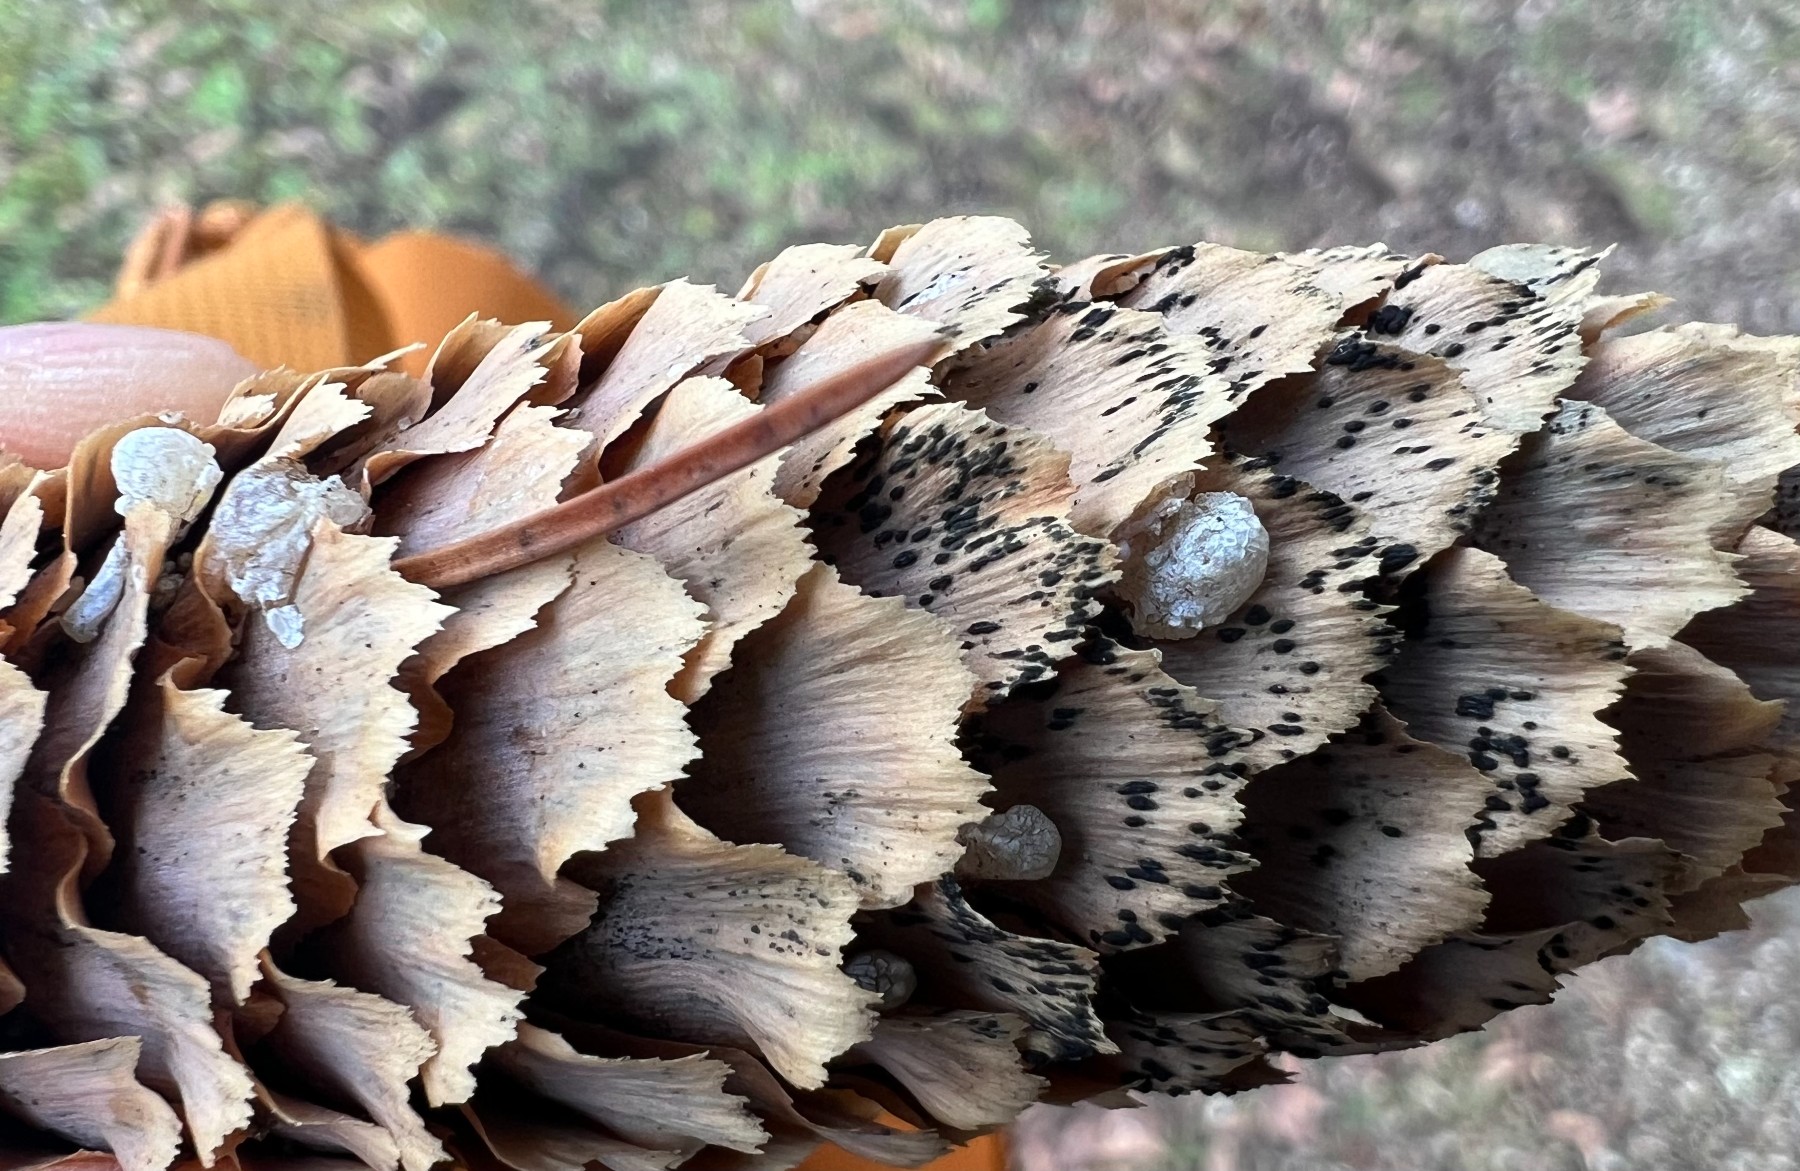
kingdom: Fungi
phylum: Ascomycota
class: Dothideomycetes
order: Pleosporales
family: Melanommataceae
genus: Phragmotrichum
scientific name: Phragmotrichum chailletii
